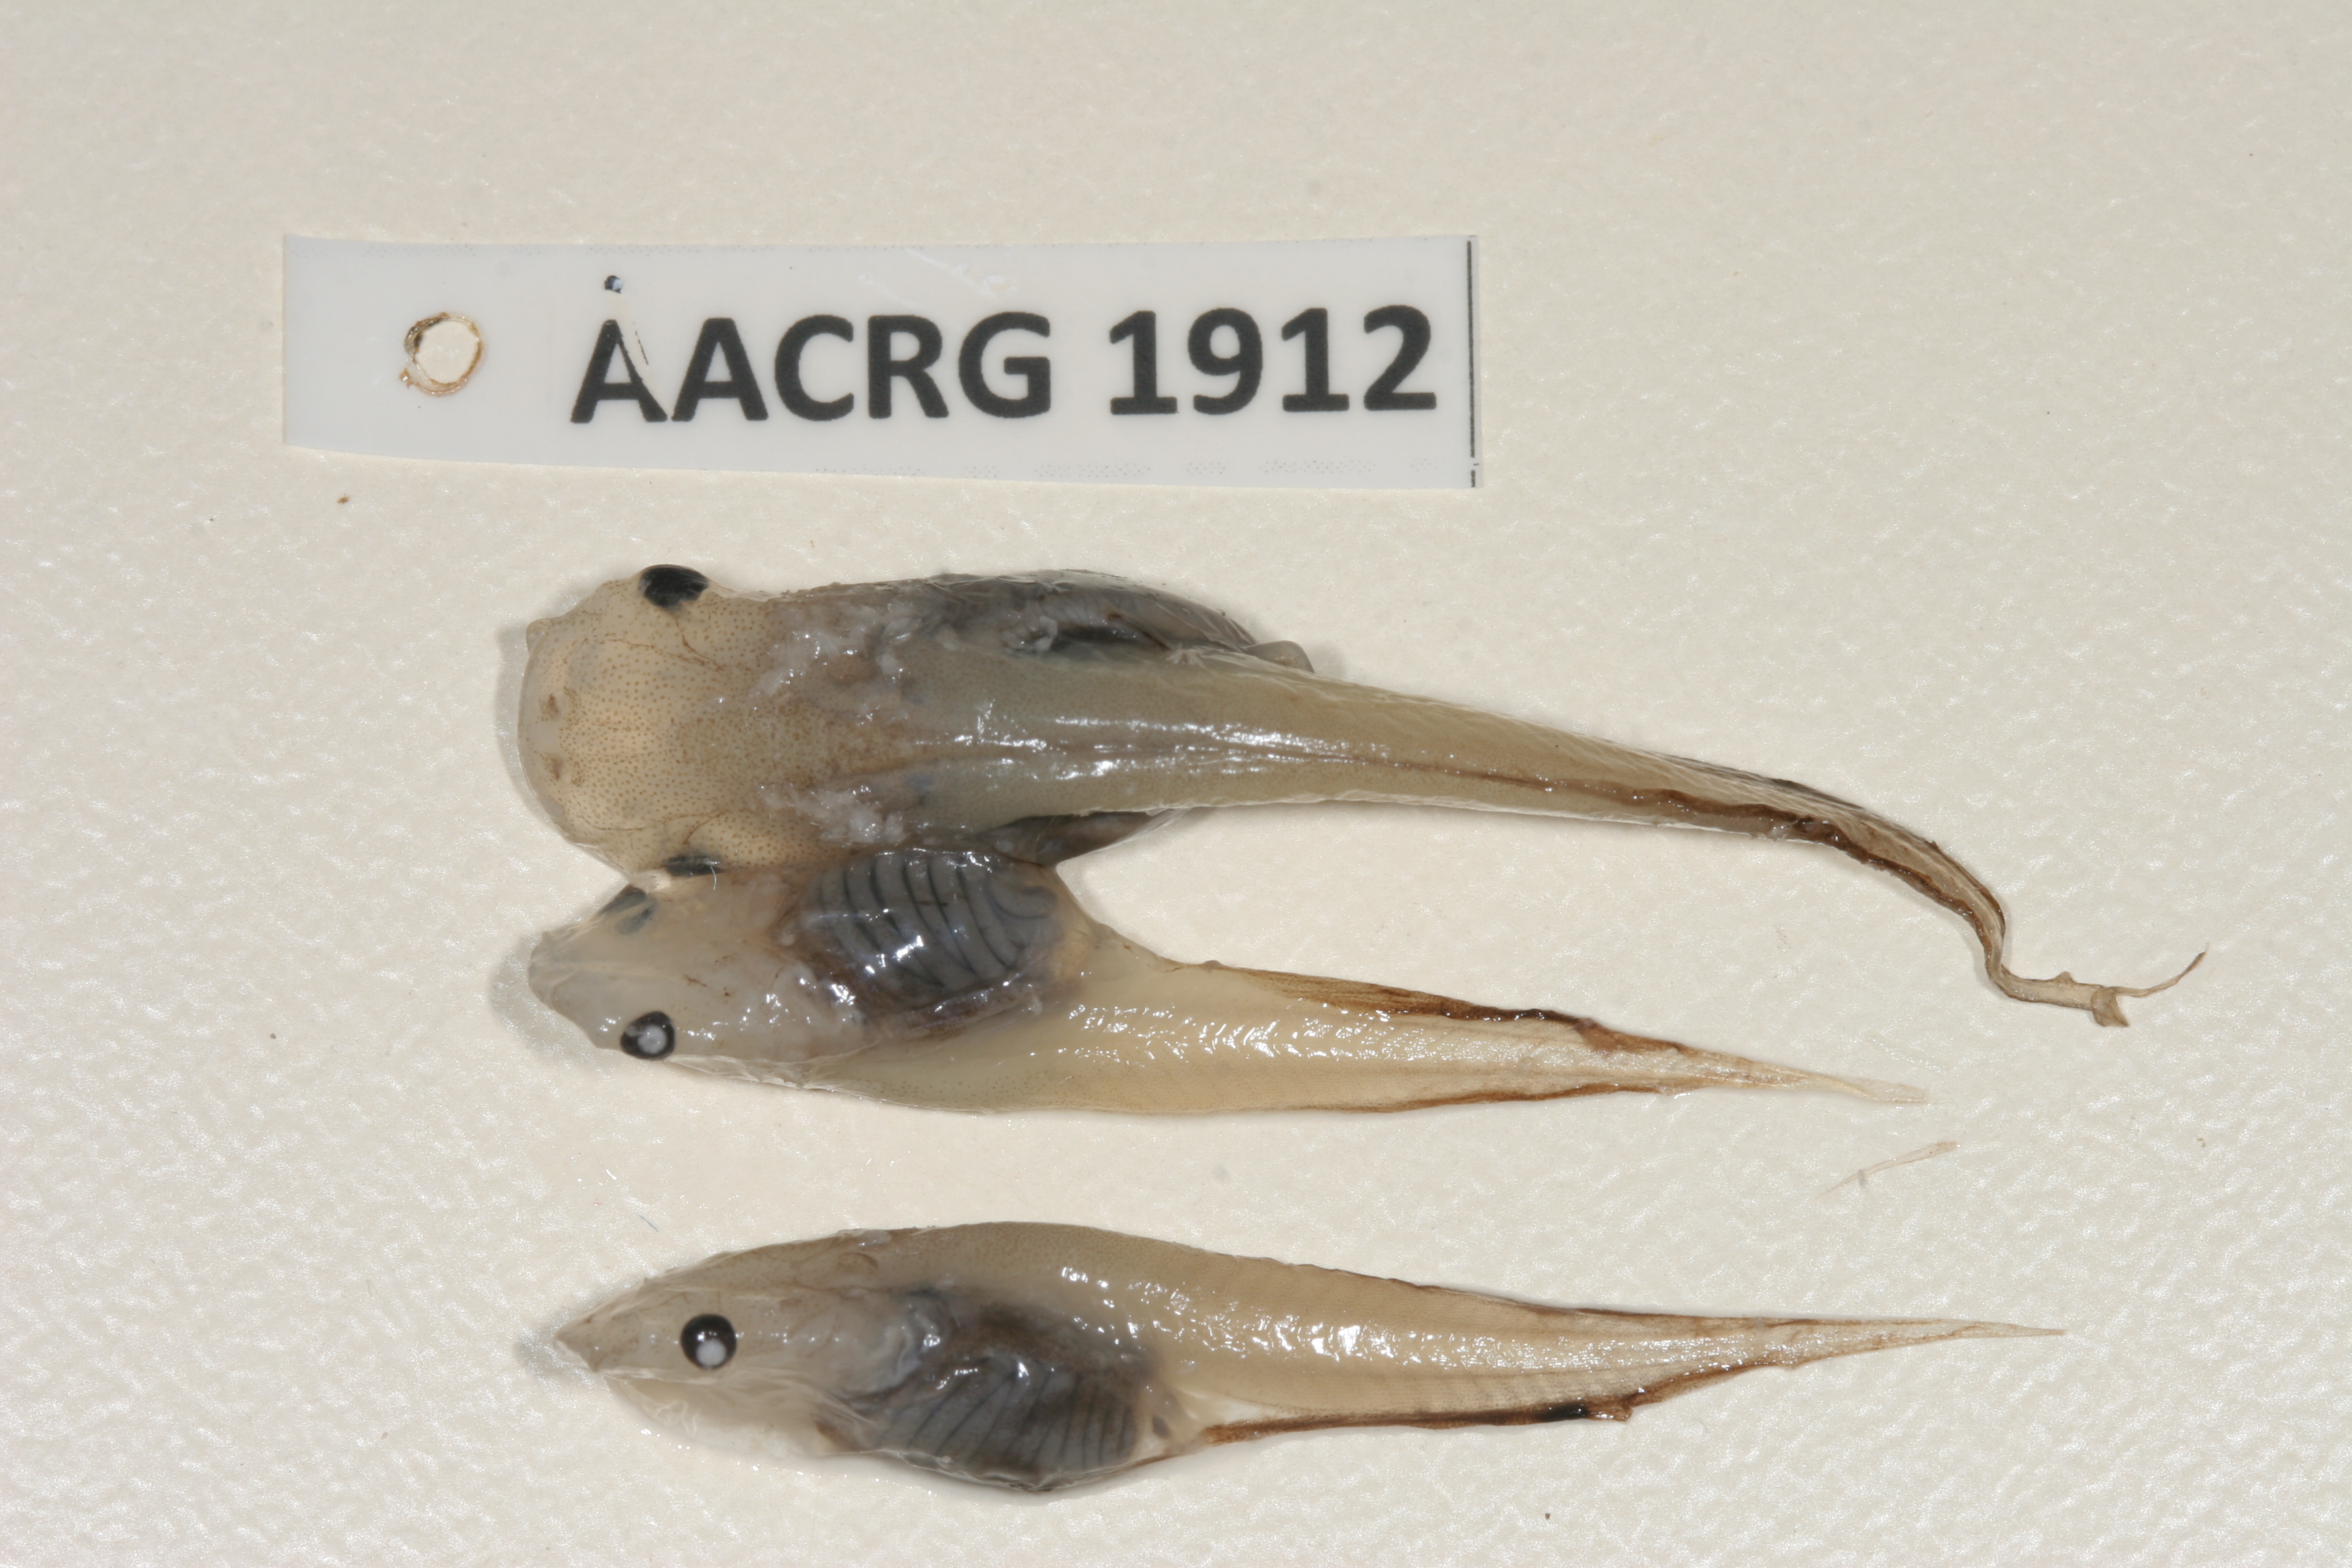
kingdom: Animalia
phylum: Chordata
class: Amphibia
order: Anura
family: Pipidae
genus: Xenopus
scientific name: Xenopus muelleri
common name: Muller's clawed frog
